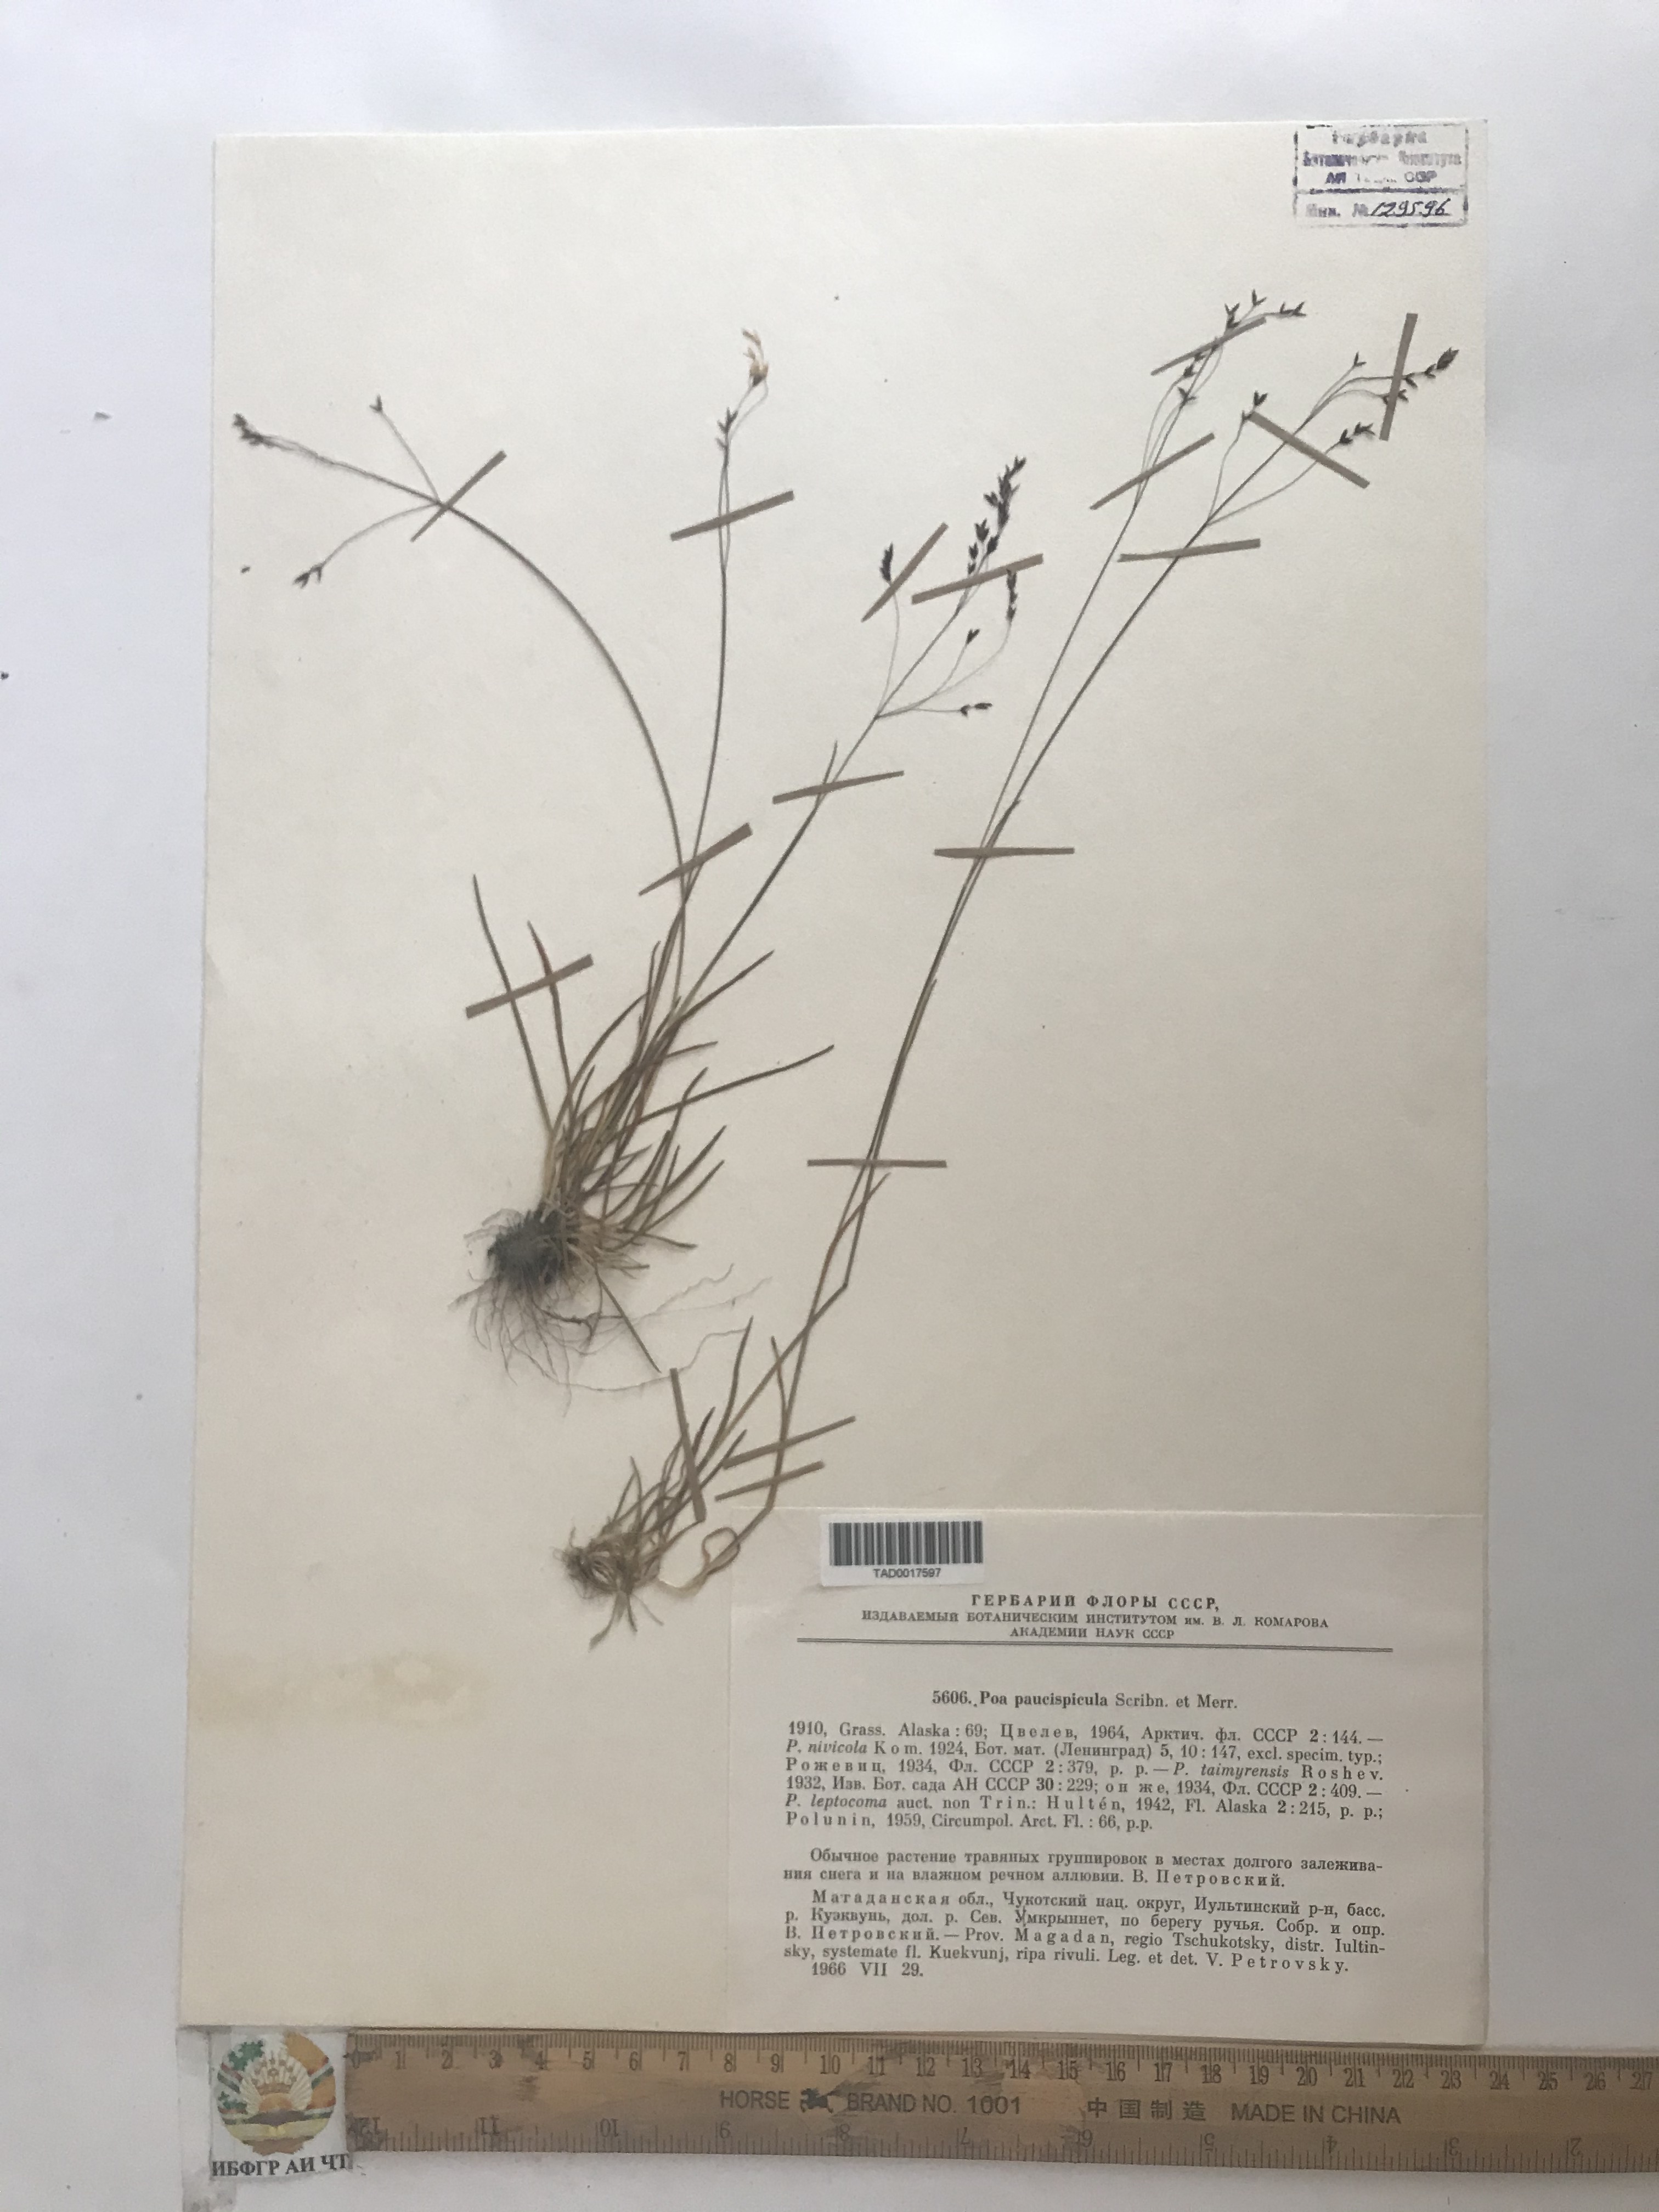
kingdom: Plantae
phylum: Tracheophyta
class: Liliopsida
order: Poales
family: Poaceae
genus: Poa
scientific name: Poa paucispicula
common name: Alaska bluegrass
